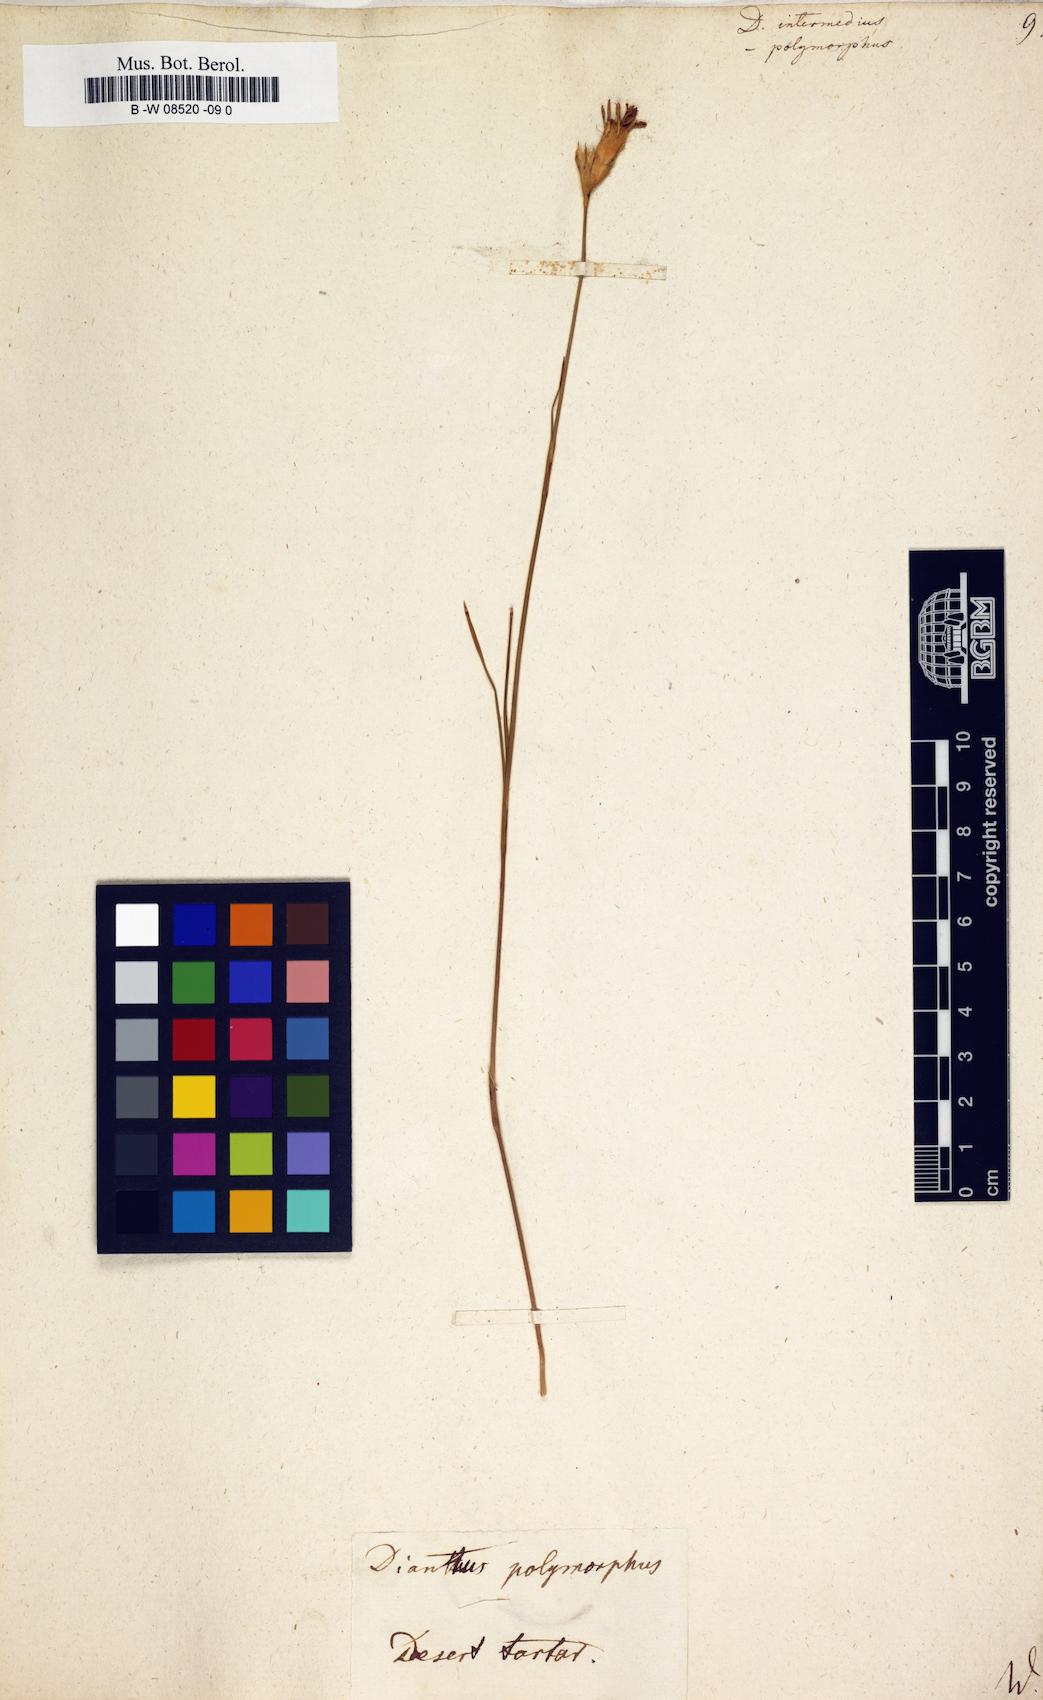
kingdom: Plantae
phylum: Tracheophyta
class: Magnoliopsida
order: Caryophyllales
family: Caryophyllaceae
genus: Dianthus
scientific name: Dianthus
